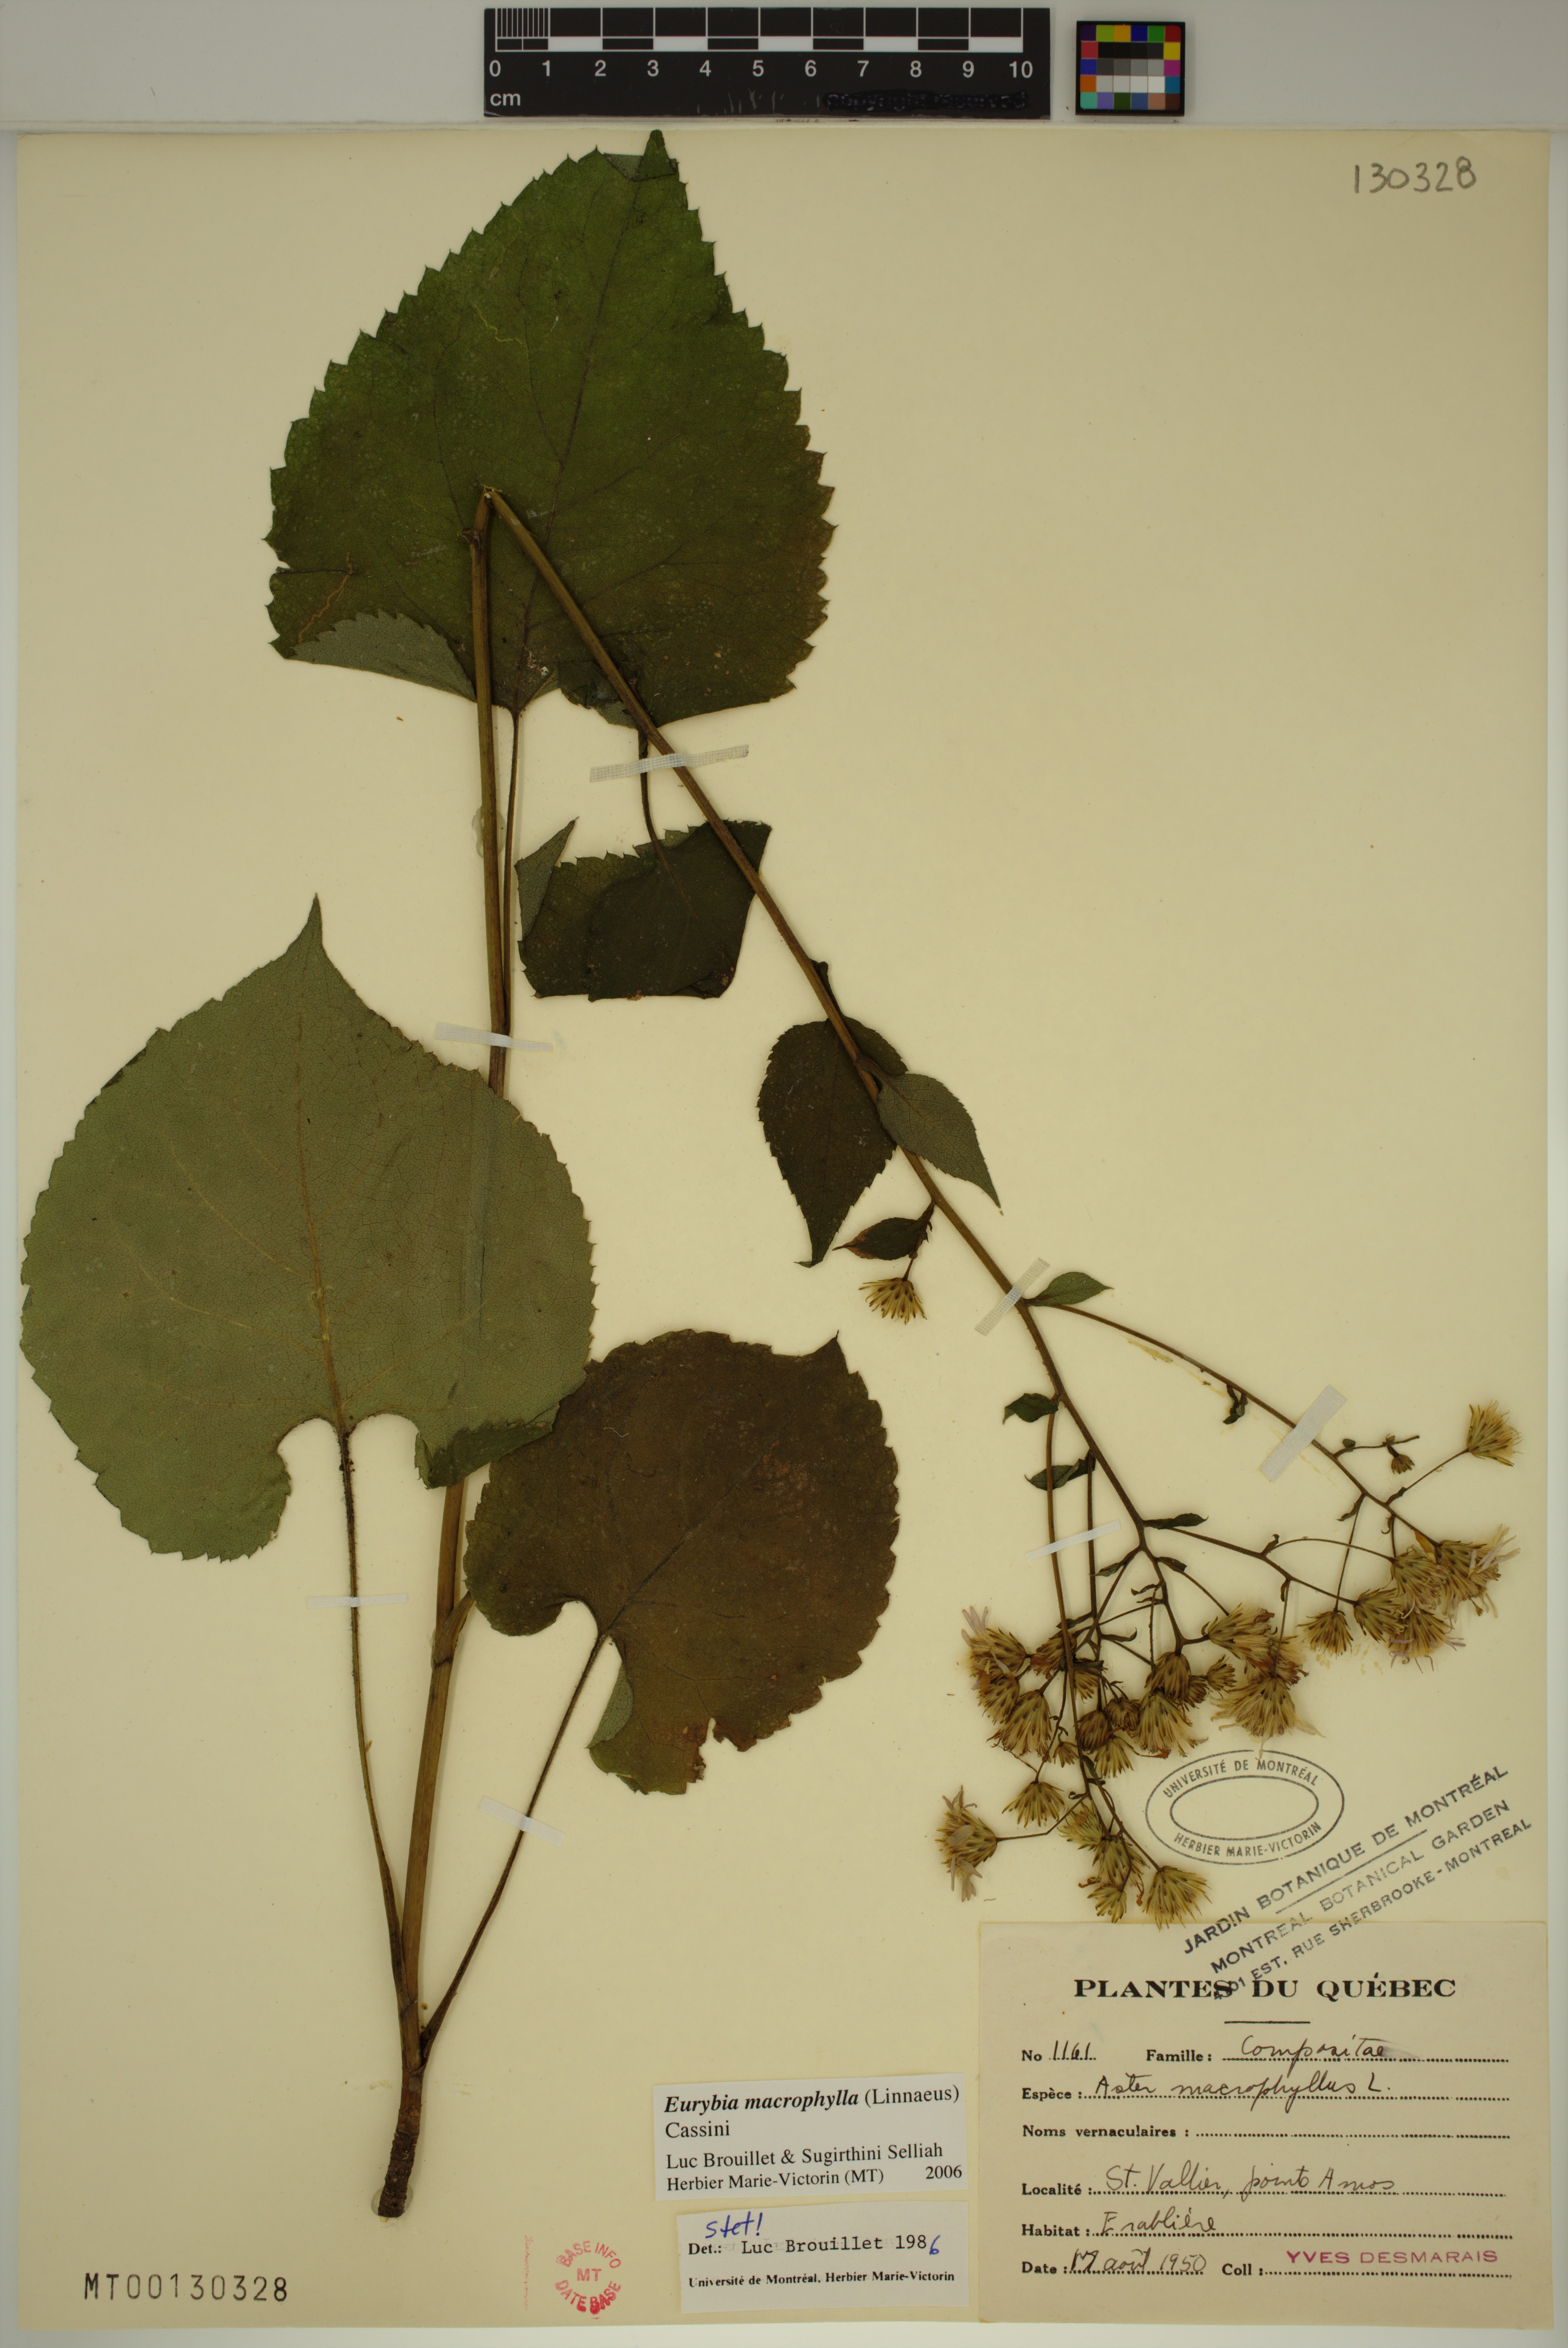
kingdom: Plantae
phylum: Tracheophyta
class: Magnoliopsida
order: Asterales
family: Asteraceae
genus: Eurybia
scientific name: Eurybia macrophylla
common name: Big-leaved aster
